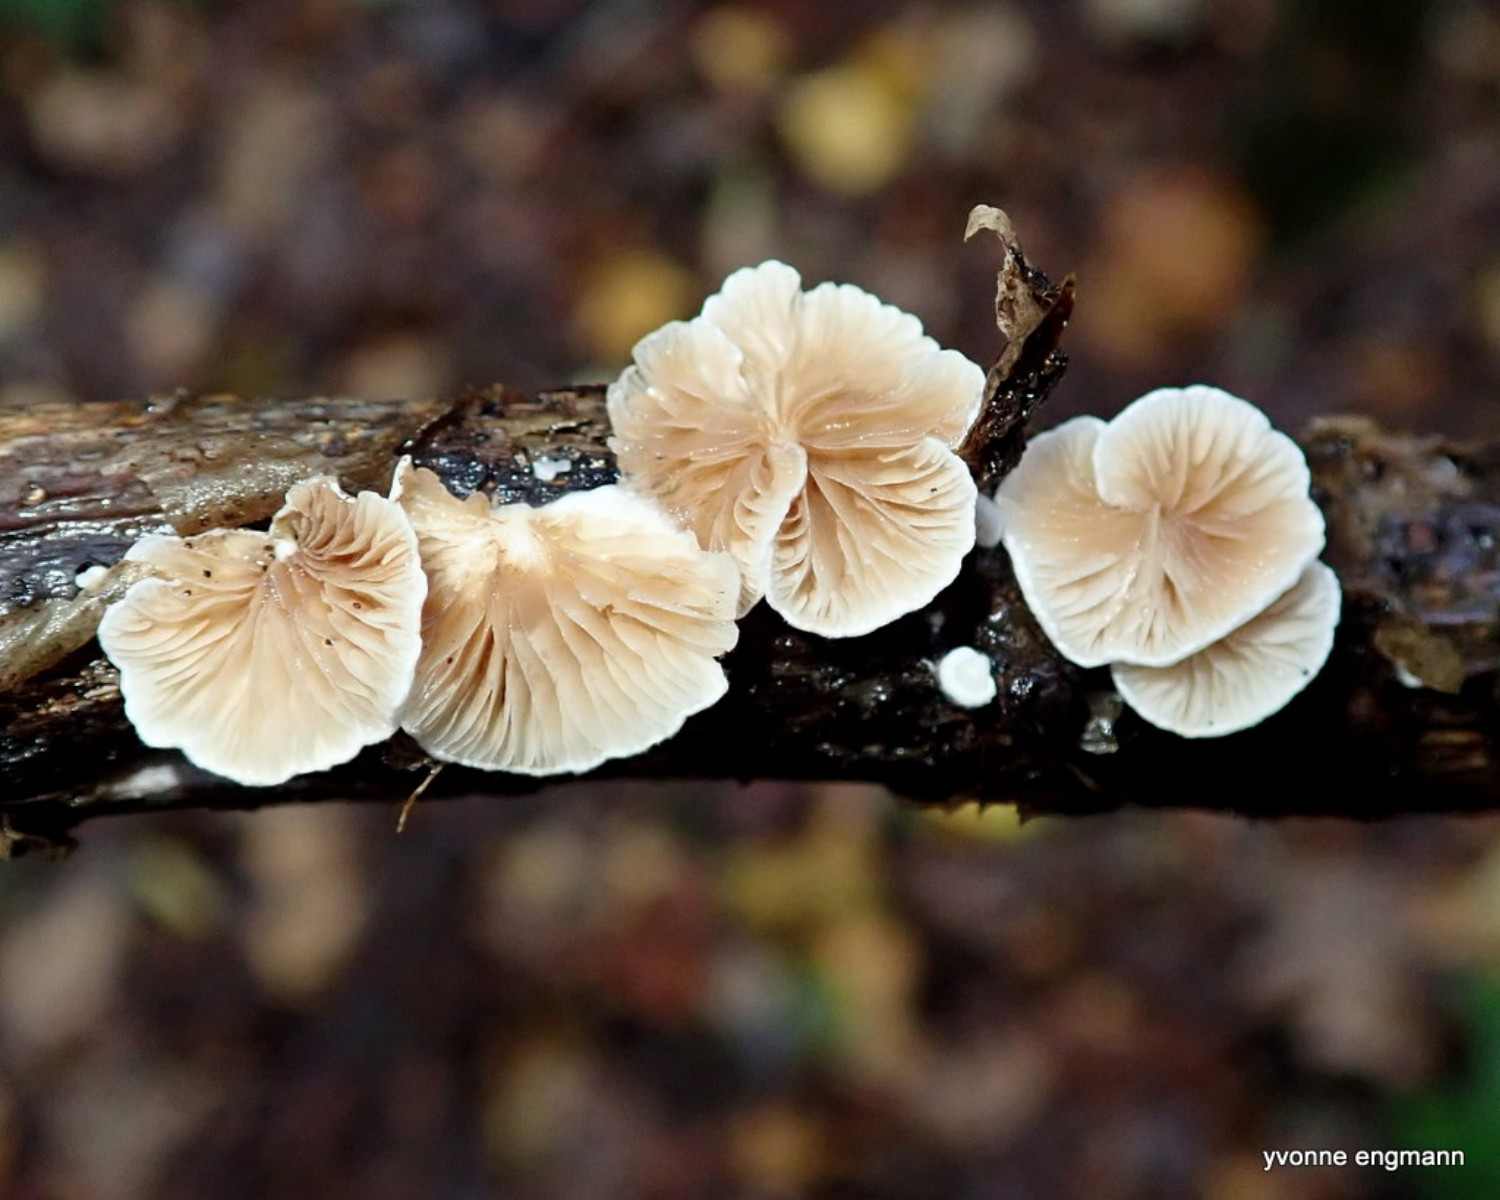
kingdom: Fungi
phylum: Basidiomycota
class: Agaricomycetes
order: Agaricales
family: Crepidotaceae
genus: Crepidotus
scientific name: Crepidotus
